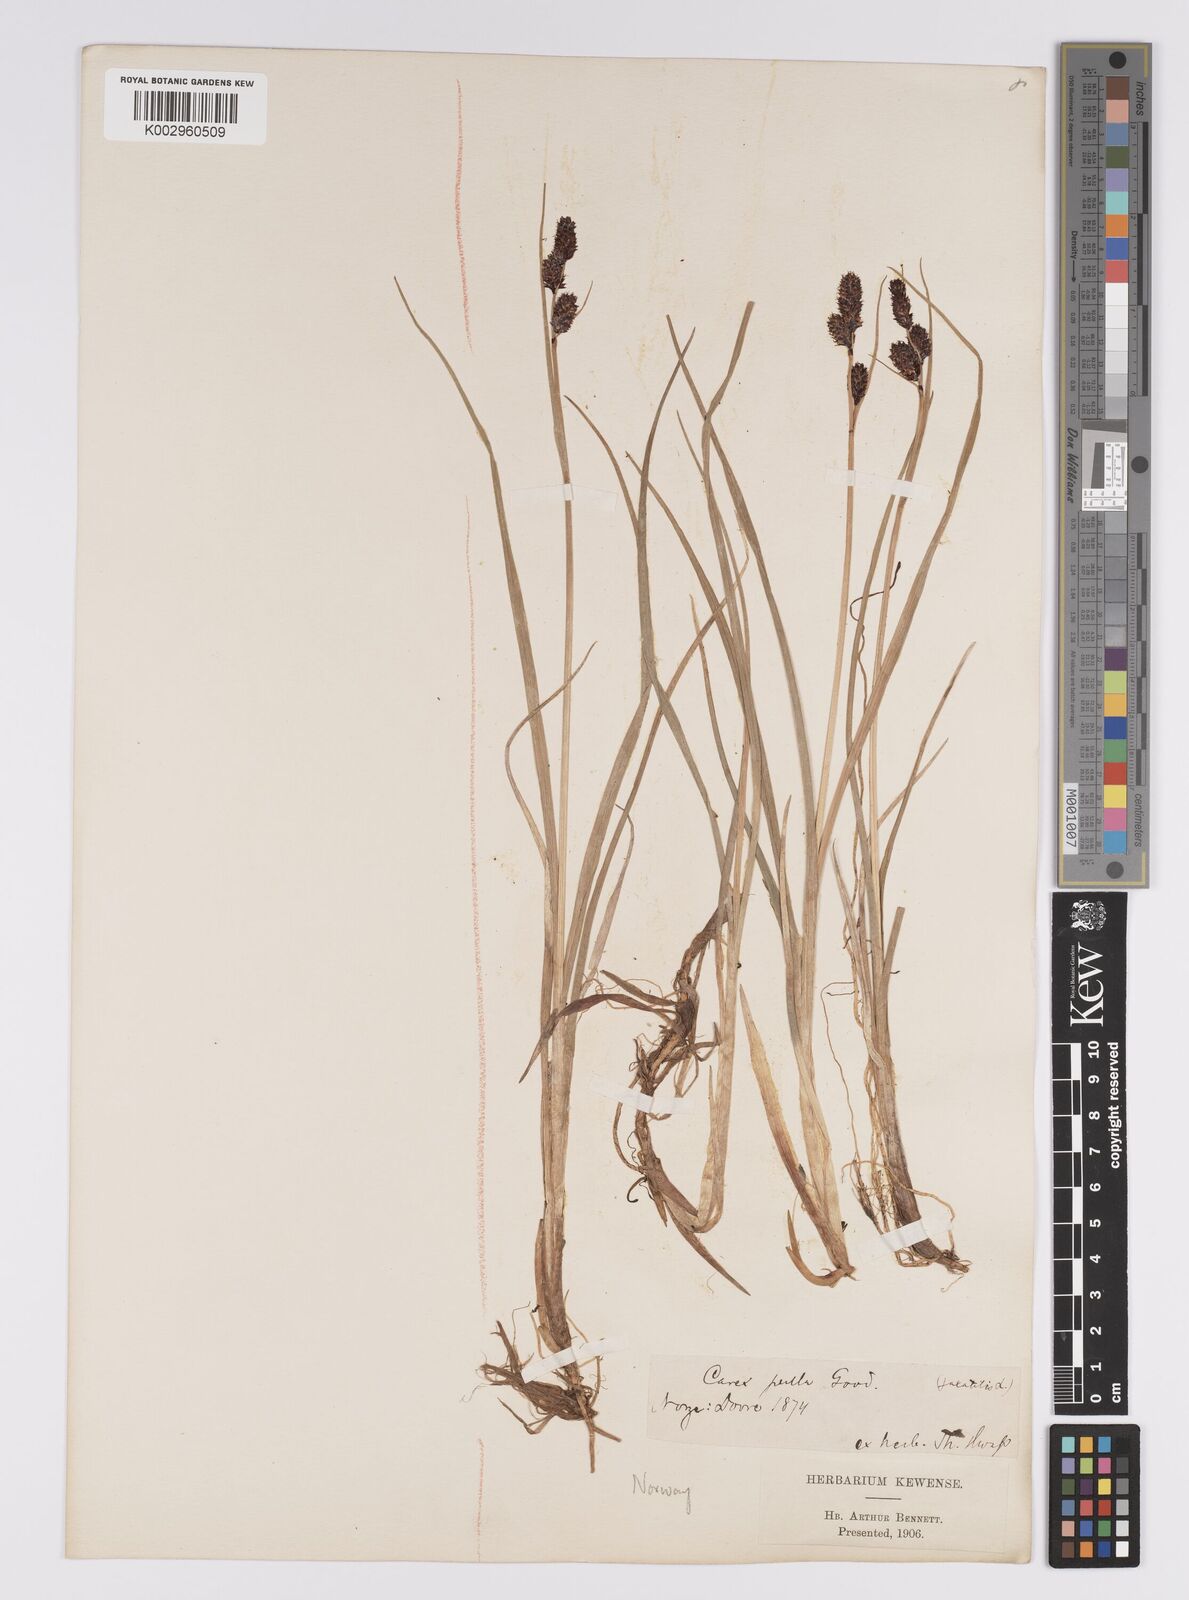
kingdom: Plantae
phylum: Tracheophyta
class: Liliopsida
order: Poales
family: Cyperaceae
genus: Carex
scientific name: Carex saxatilis
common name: Russet sedge
